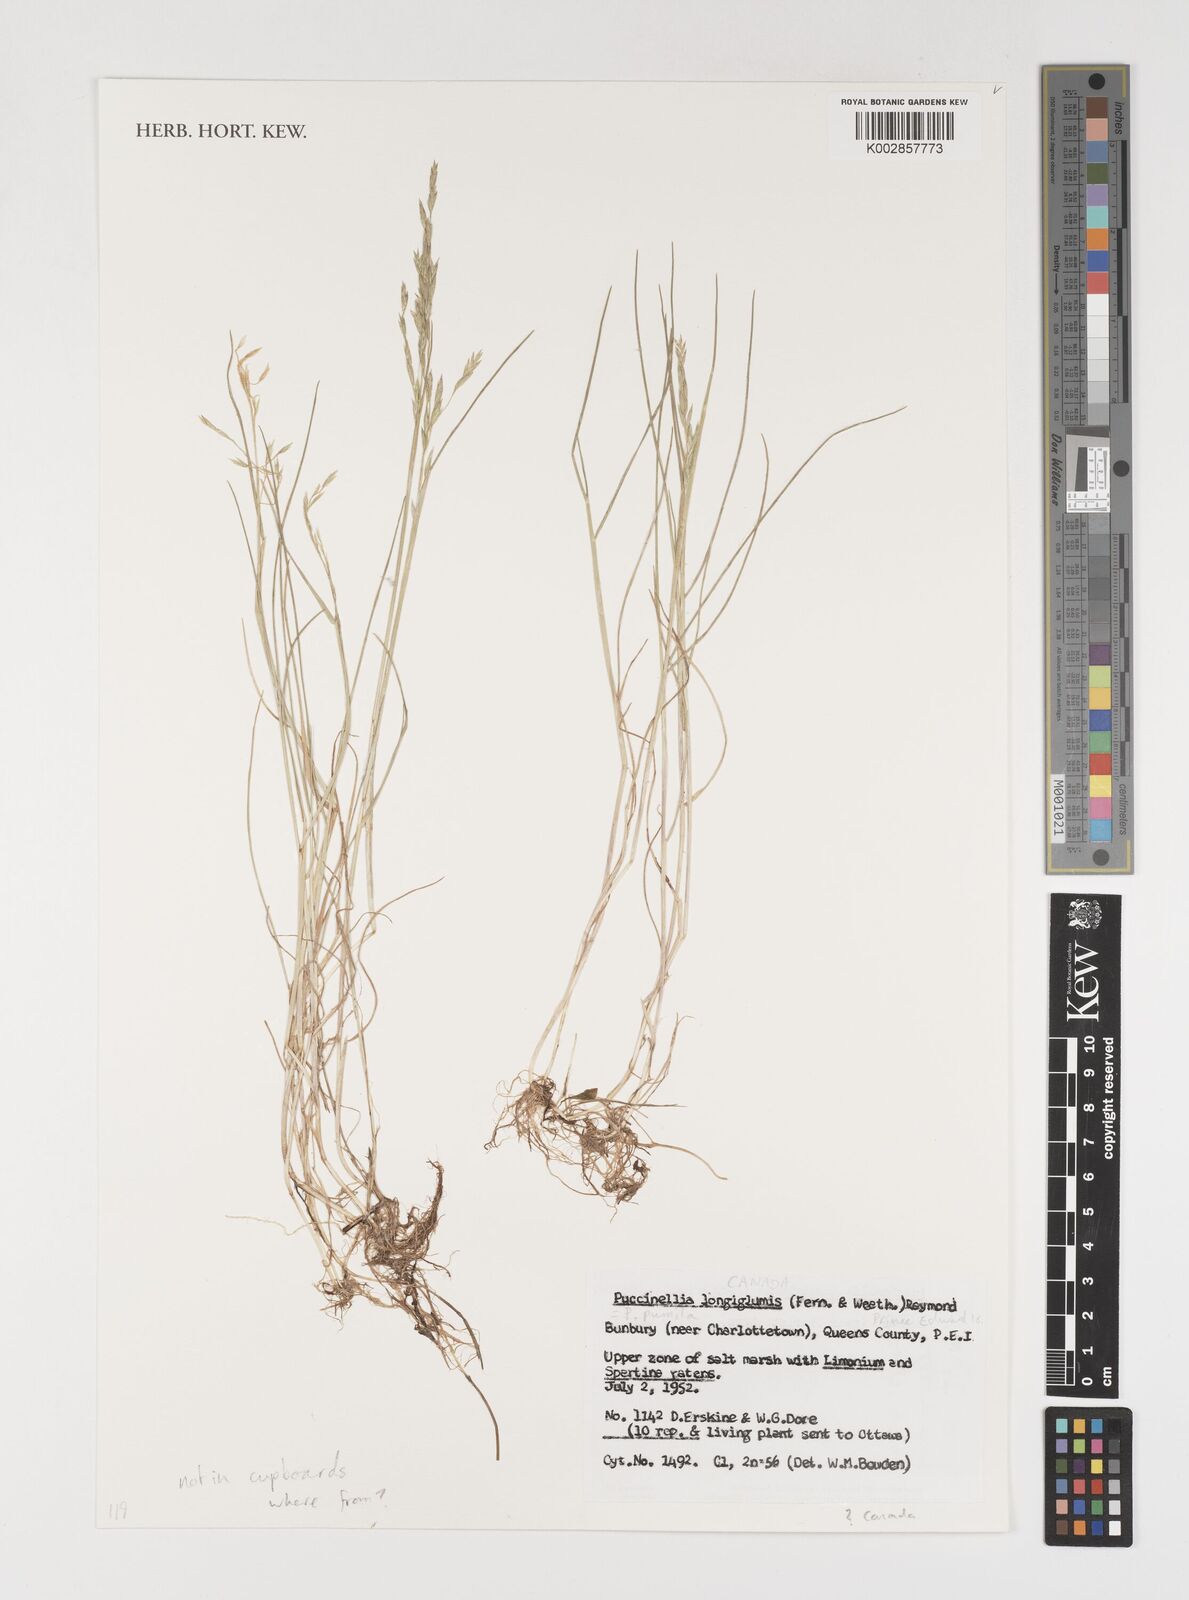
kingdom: Plantae
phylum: Tracheophyta
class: Liliopsida
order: Poales
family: Poaceae
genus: Puccinellia
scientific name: Puccinellia pumila
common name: Dwarf alkaligrass
